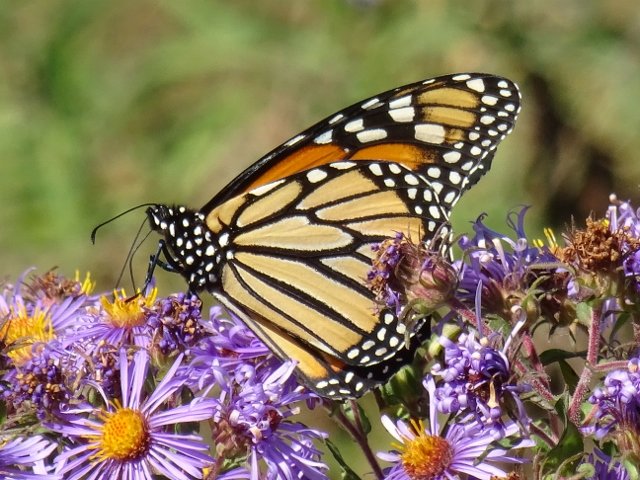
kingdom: Animalia
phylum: Arthropoda
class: Insecta
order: Lepidoptera
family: Nymphalidae
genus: Danaus
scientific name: Danaus plexippus
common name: Monarch
